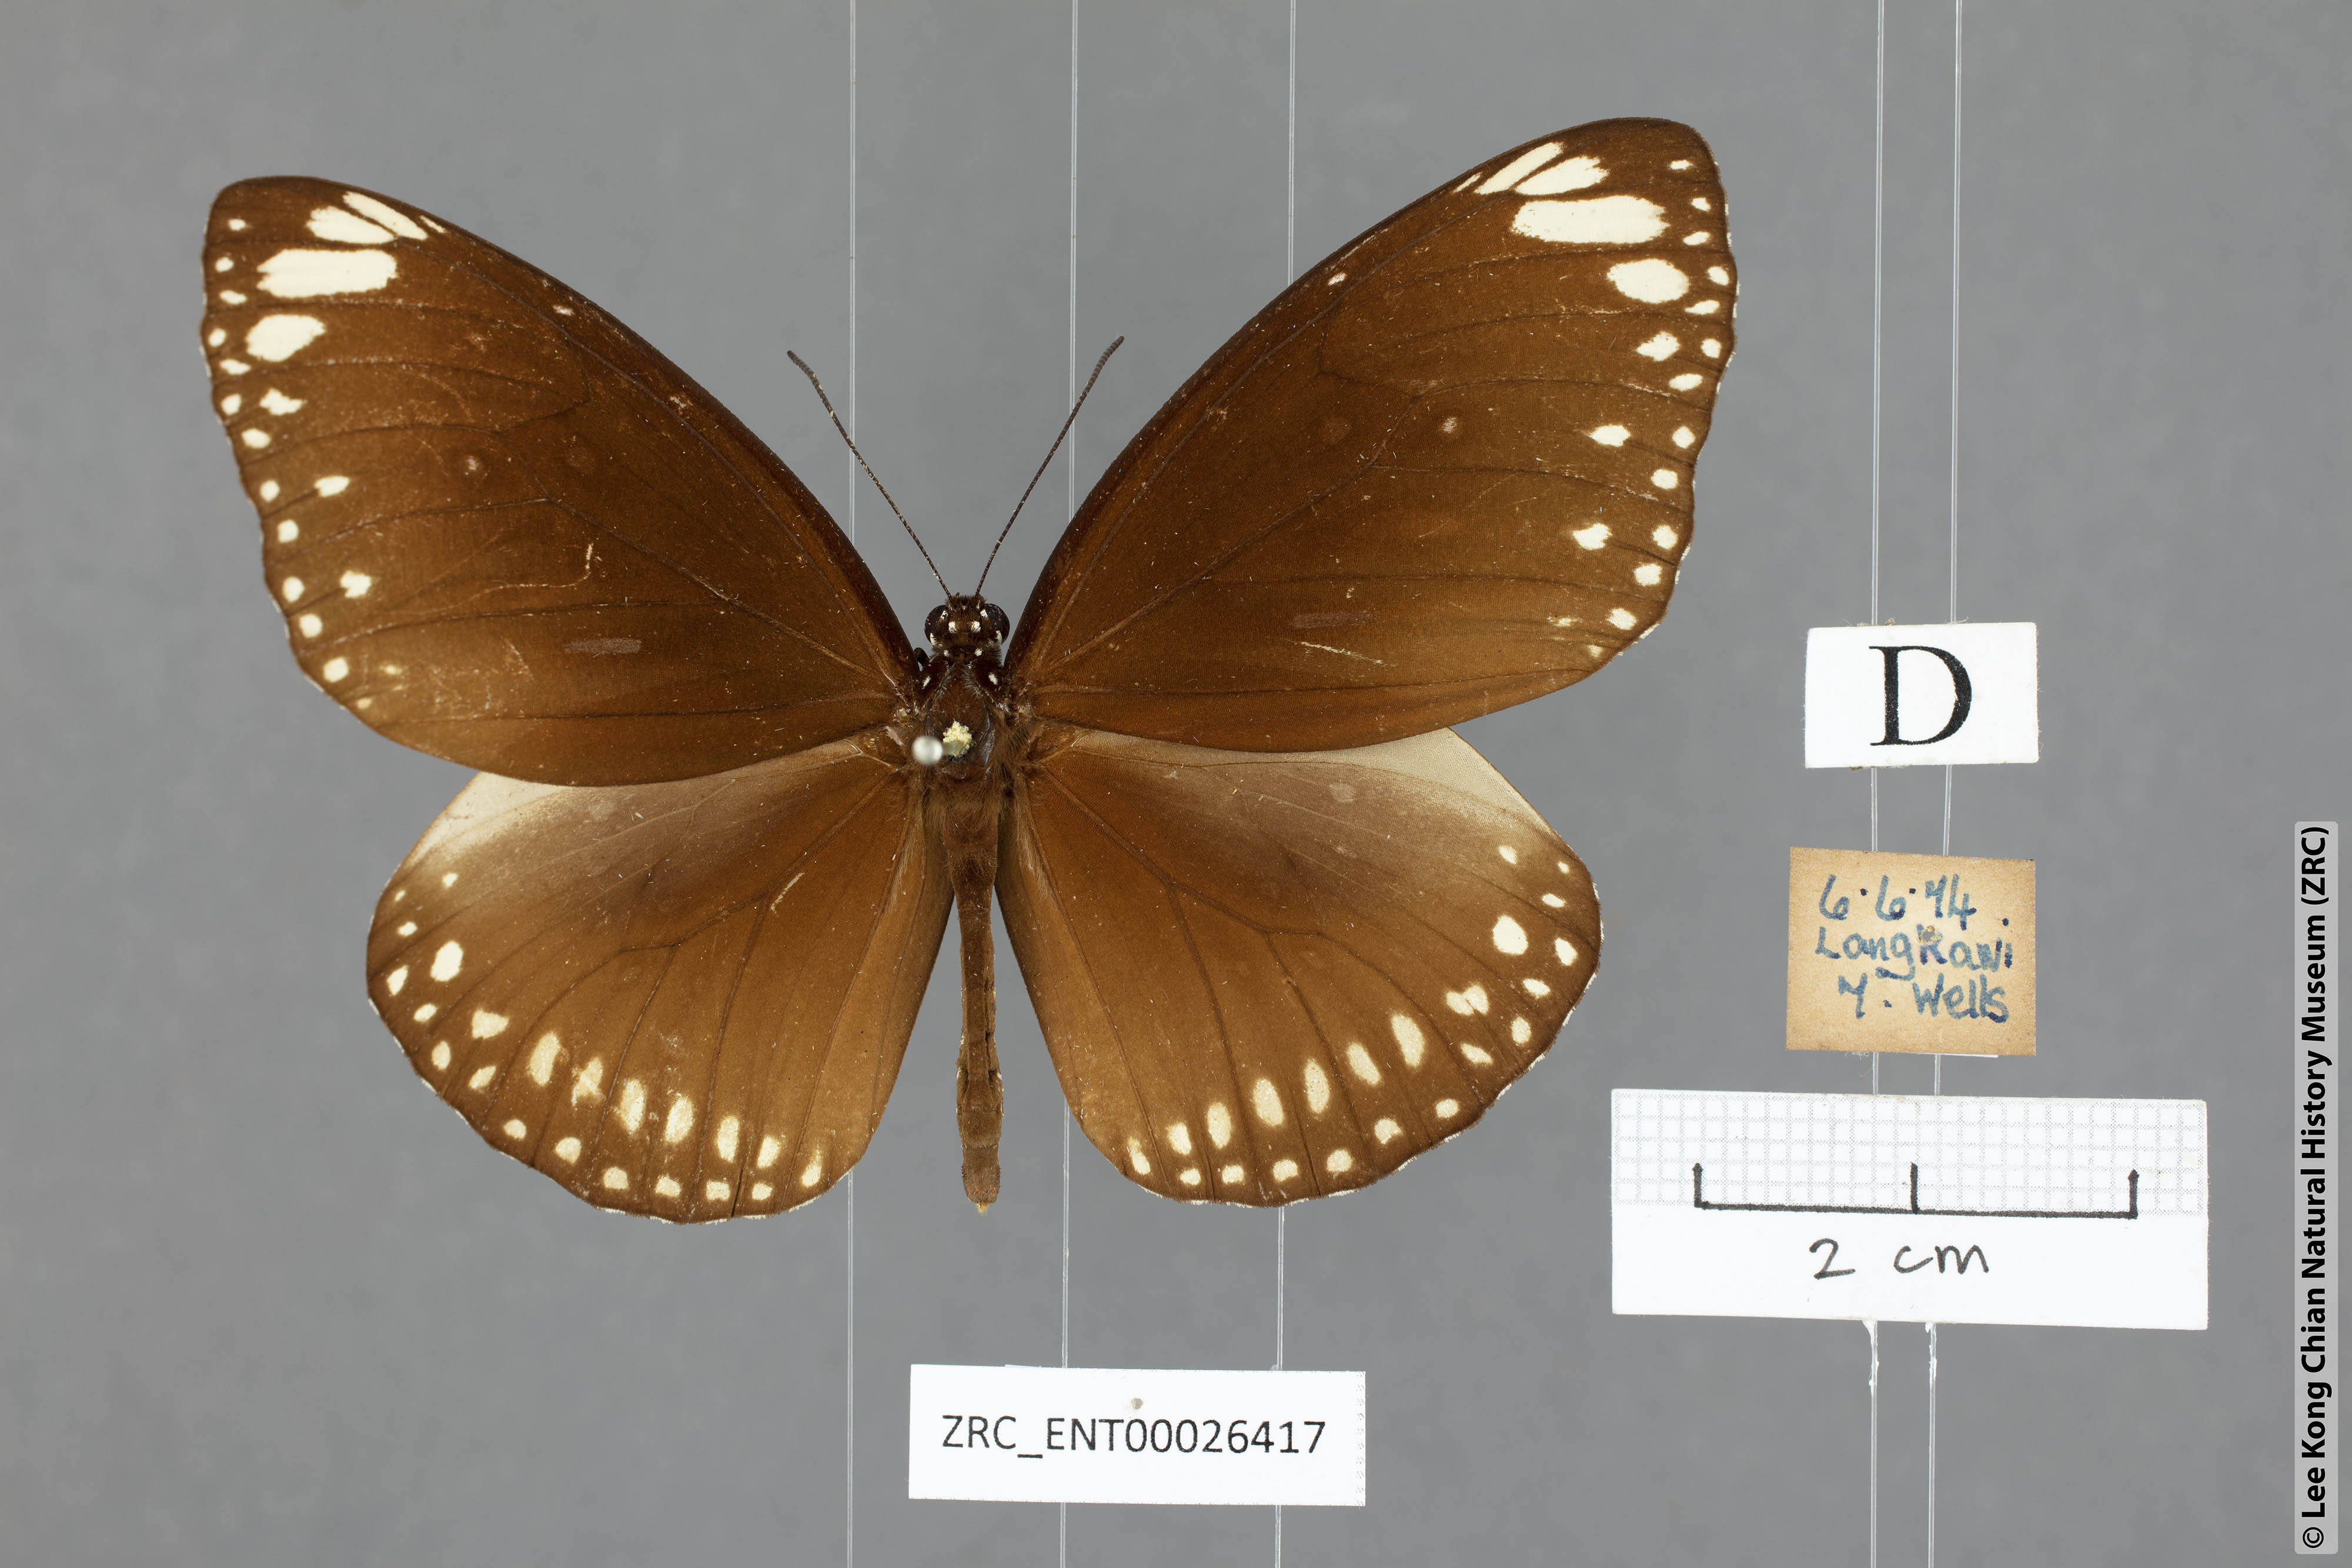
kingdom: Animalia
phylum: Arthropoda
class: Insecta
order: Lepidoptera
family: Nymphalidae
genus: Euploea
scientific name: Euploea core
